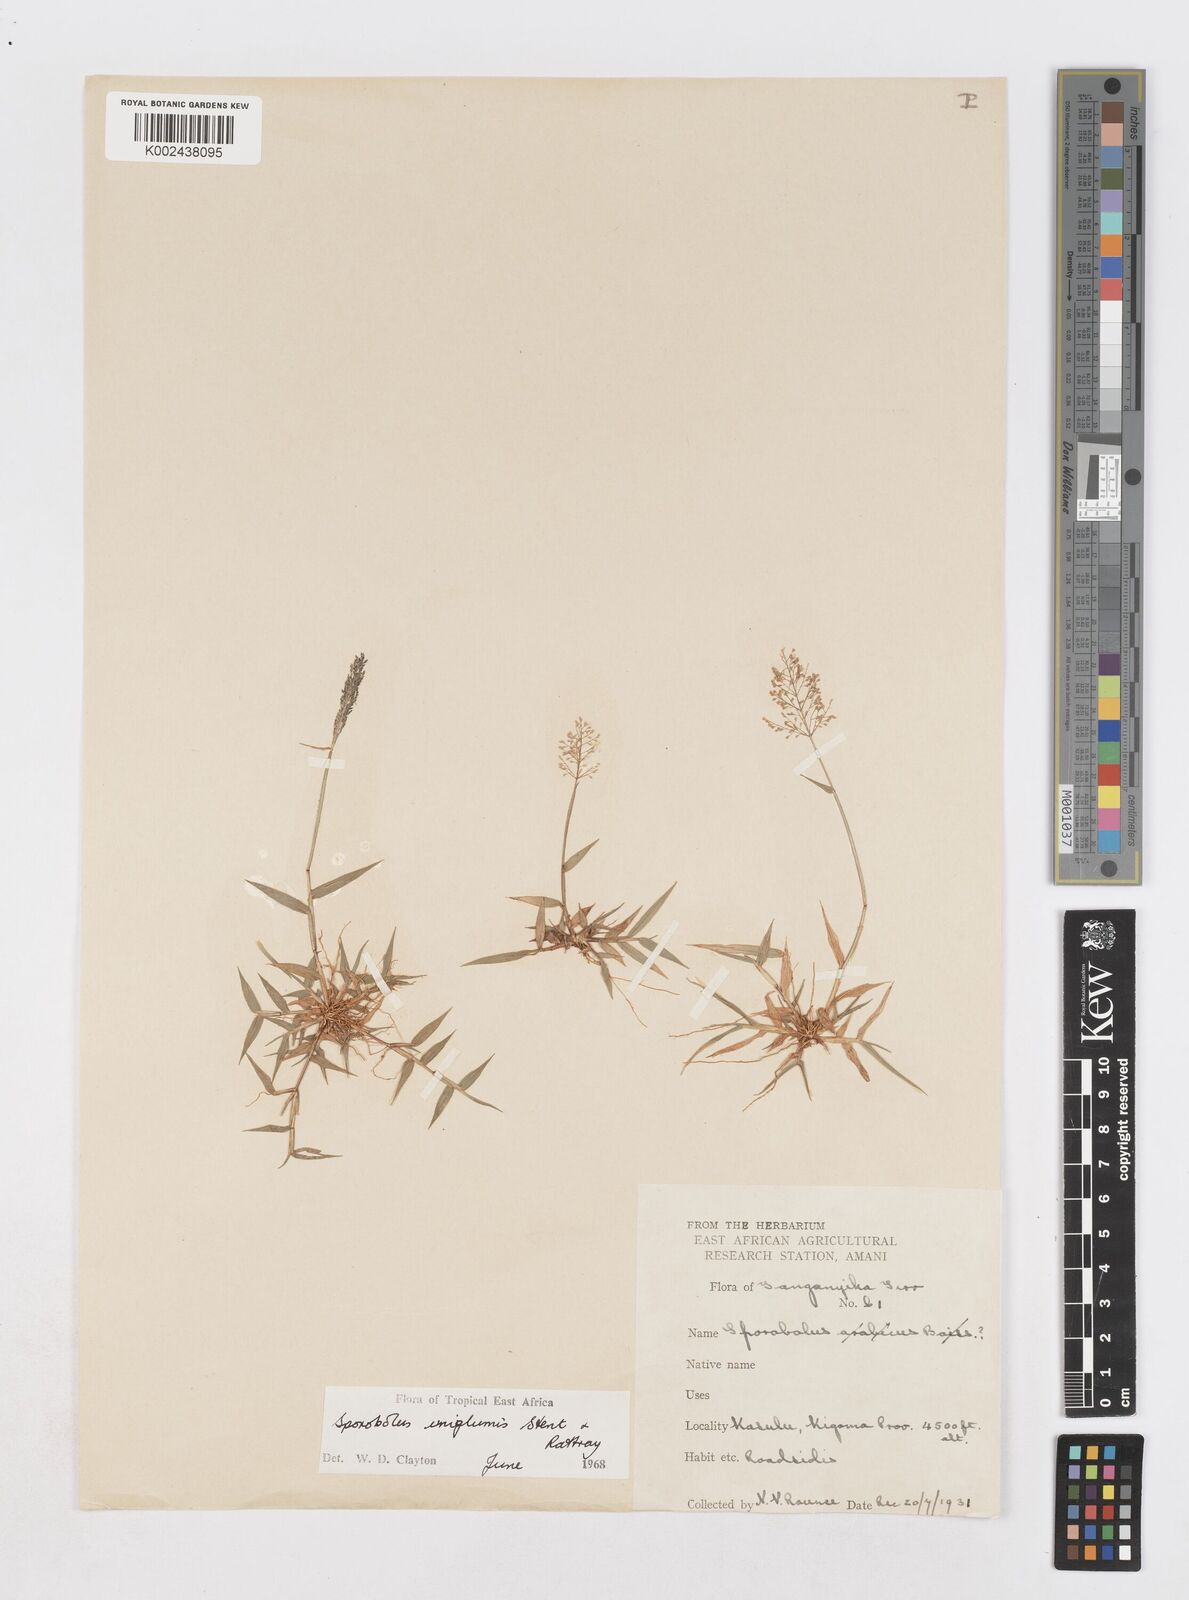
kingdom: Plantae
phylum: Tracheophyta
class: Liliopsida
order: Poales
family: Poaceae
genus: Sporobolus
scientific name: Sporobolus uniglumis
